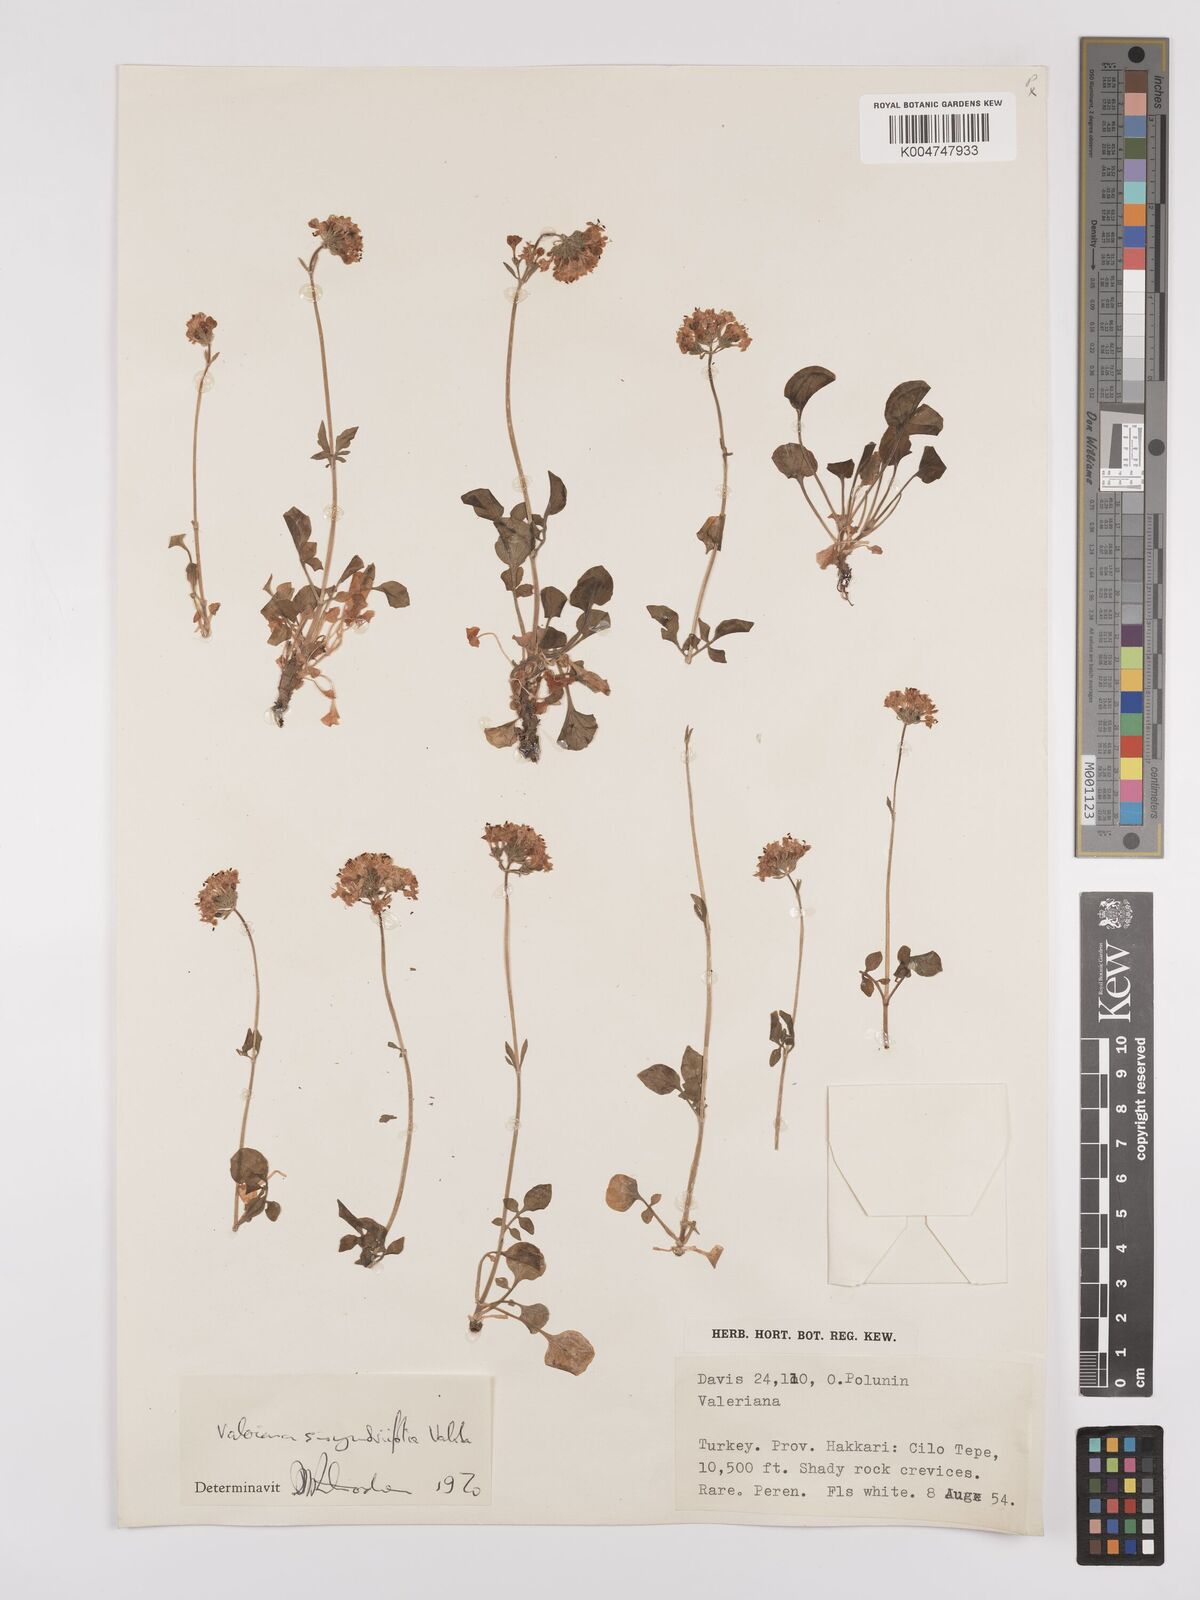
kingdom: Plantae
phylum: Tracheophyta
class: Magnoliopsida
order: Dipsacales
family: Caprifoliaceae
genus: Valeriana
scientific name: Valeriana
